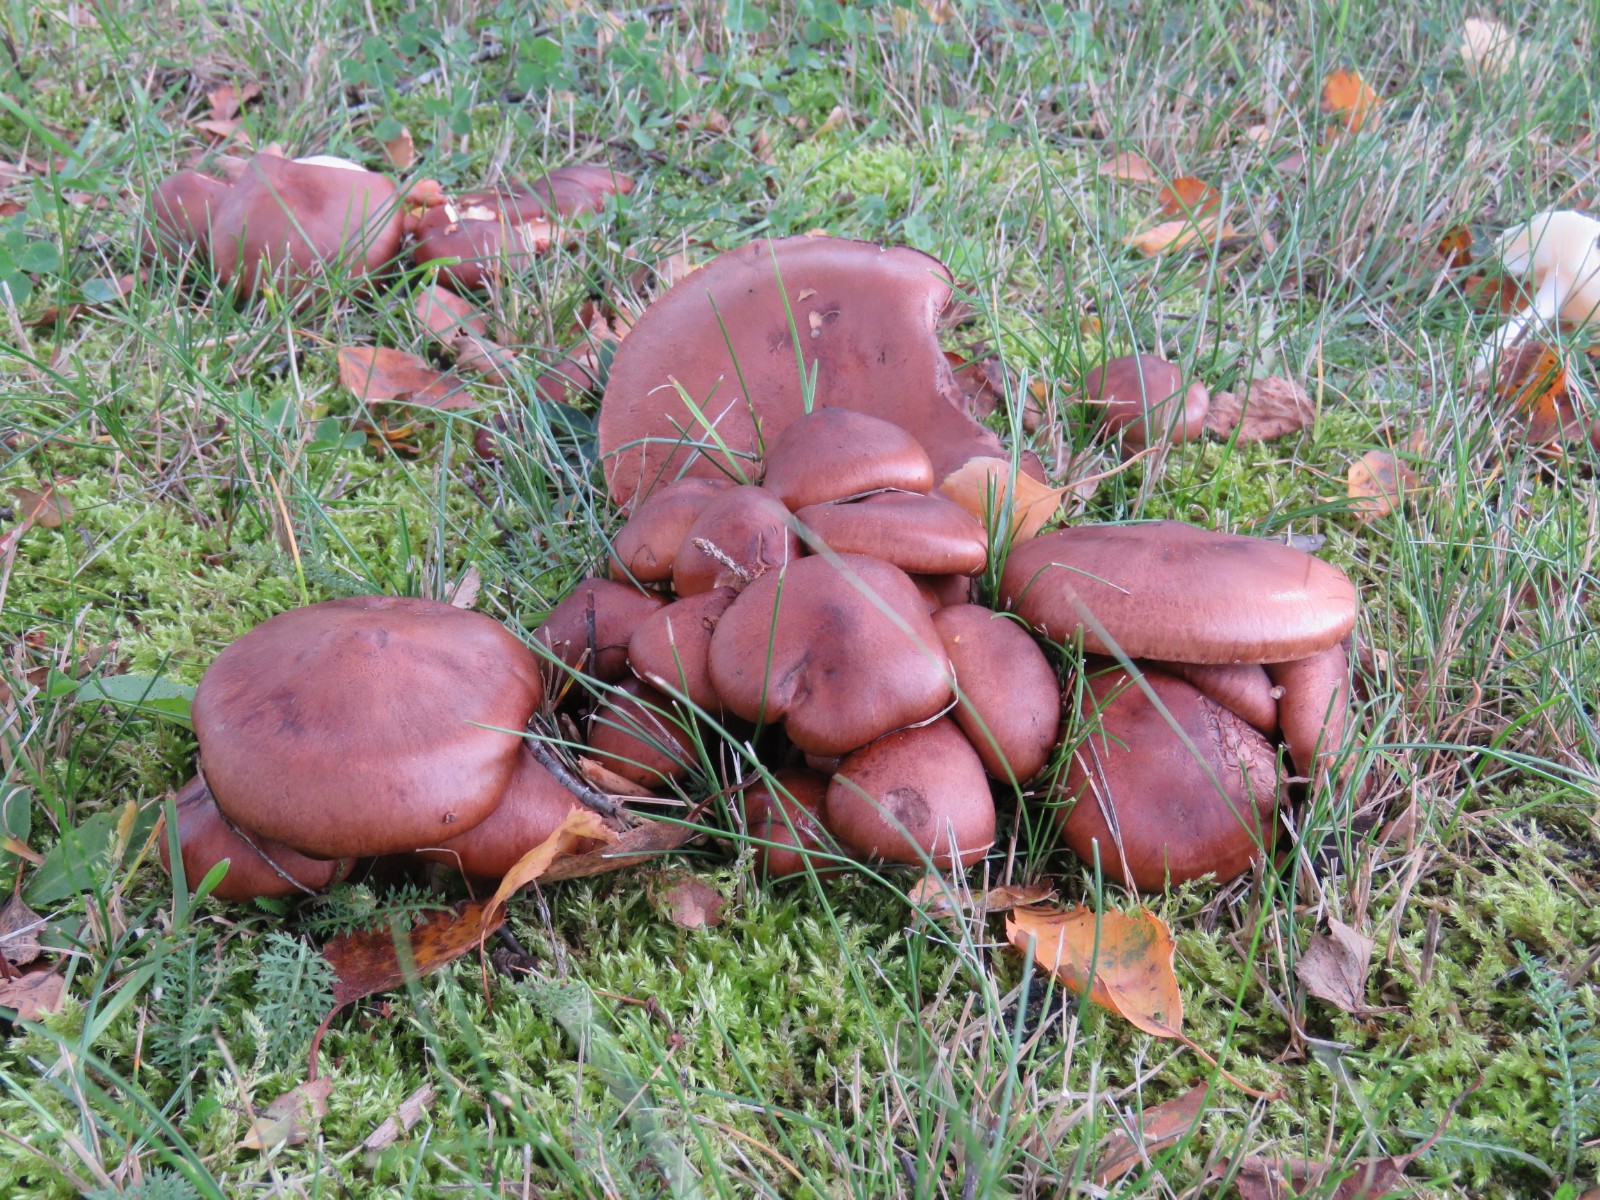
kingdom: Fungi
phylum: Basidiomycota
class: Agaricomycetes
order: Agaricales
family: Tricholomataceae
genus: Tricholoma
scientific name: Tricholoma fulvum
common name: birke-ridderhat
